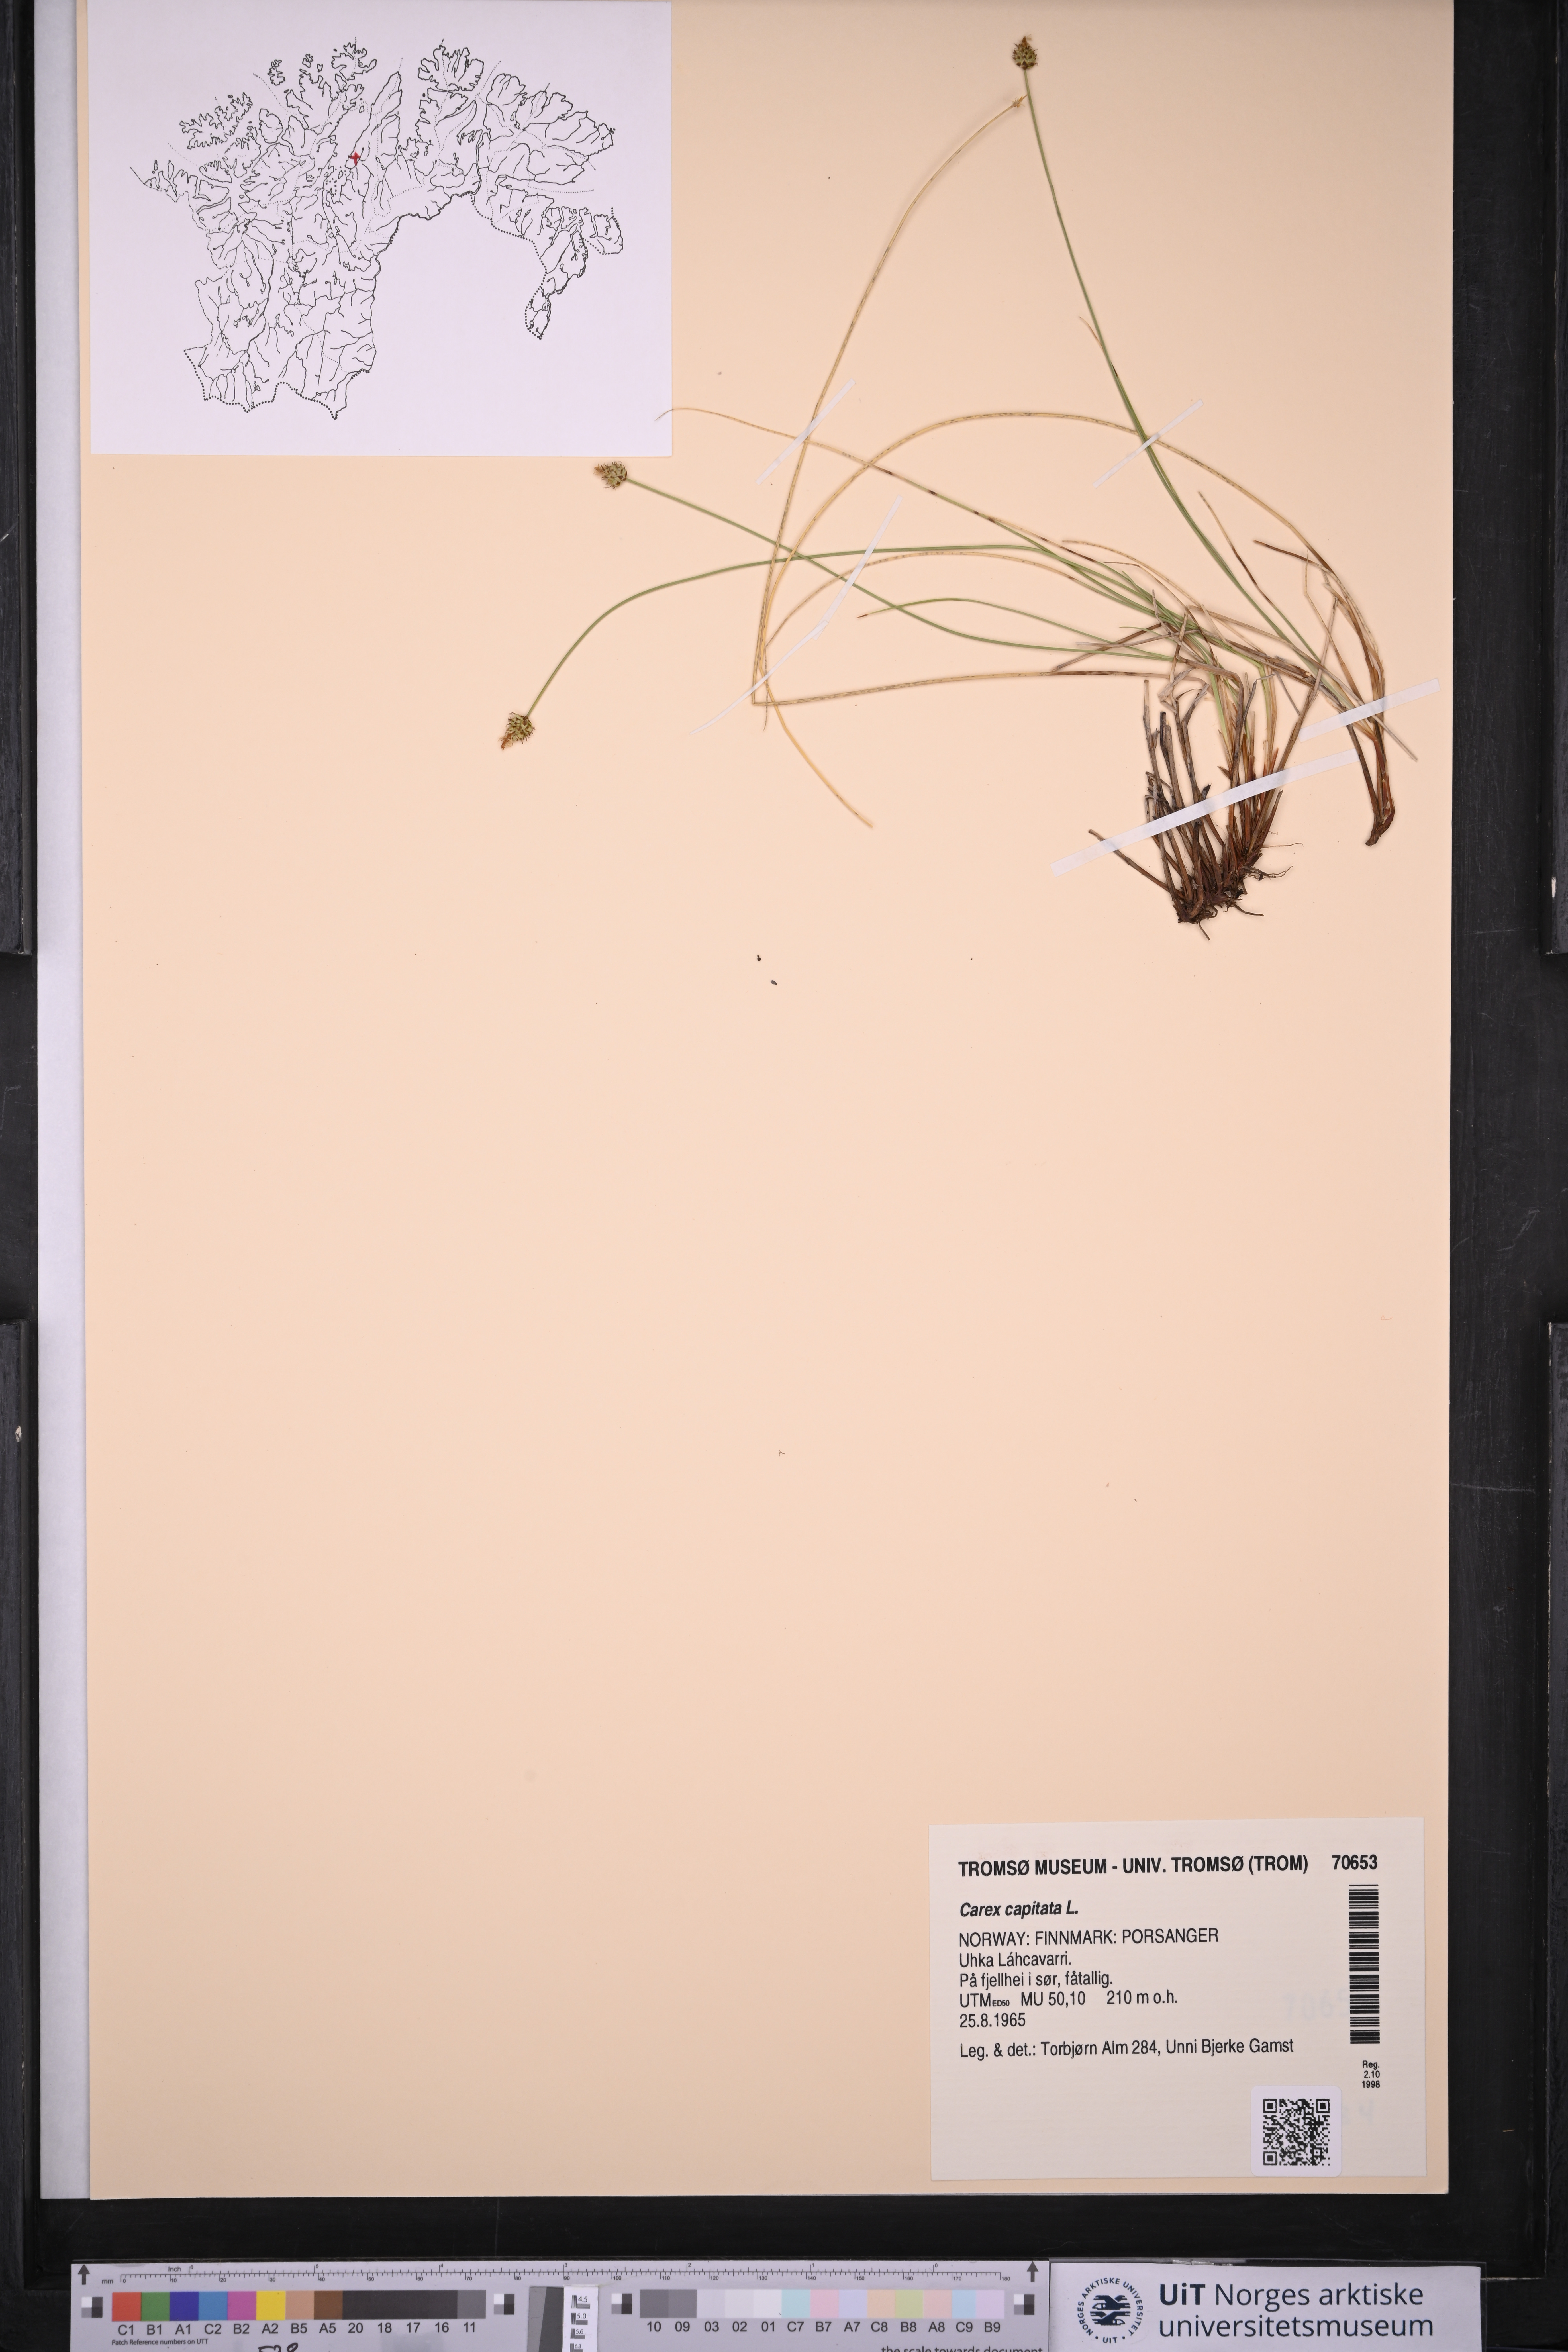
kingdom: Plantae
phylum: Tracheophyta
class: Liliopsida
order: Poales
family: Cyperaceae
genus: Carex
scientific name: Carex capitata
